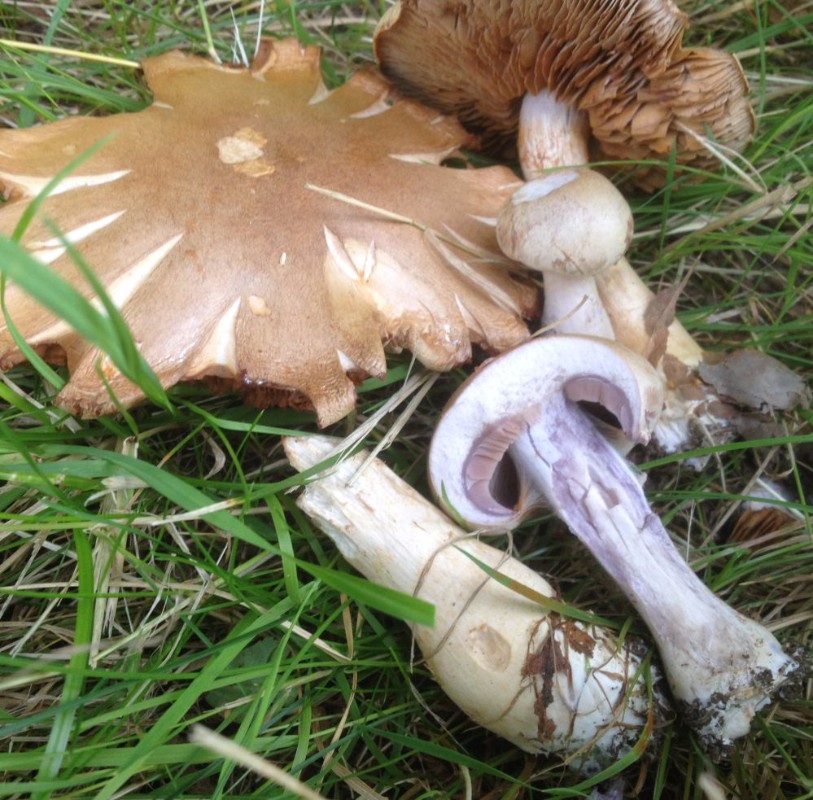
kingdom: Fungi
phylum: Basidiomycota
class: Agaricomycetes
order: Agaricales
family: Cortinariaceae
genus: Cortinarius
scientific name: Cortinarius
